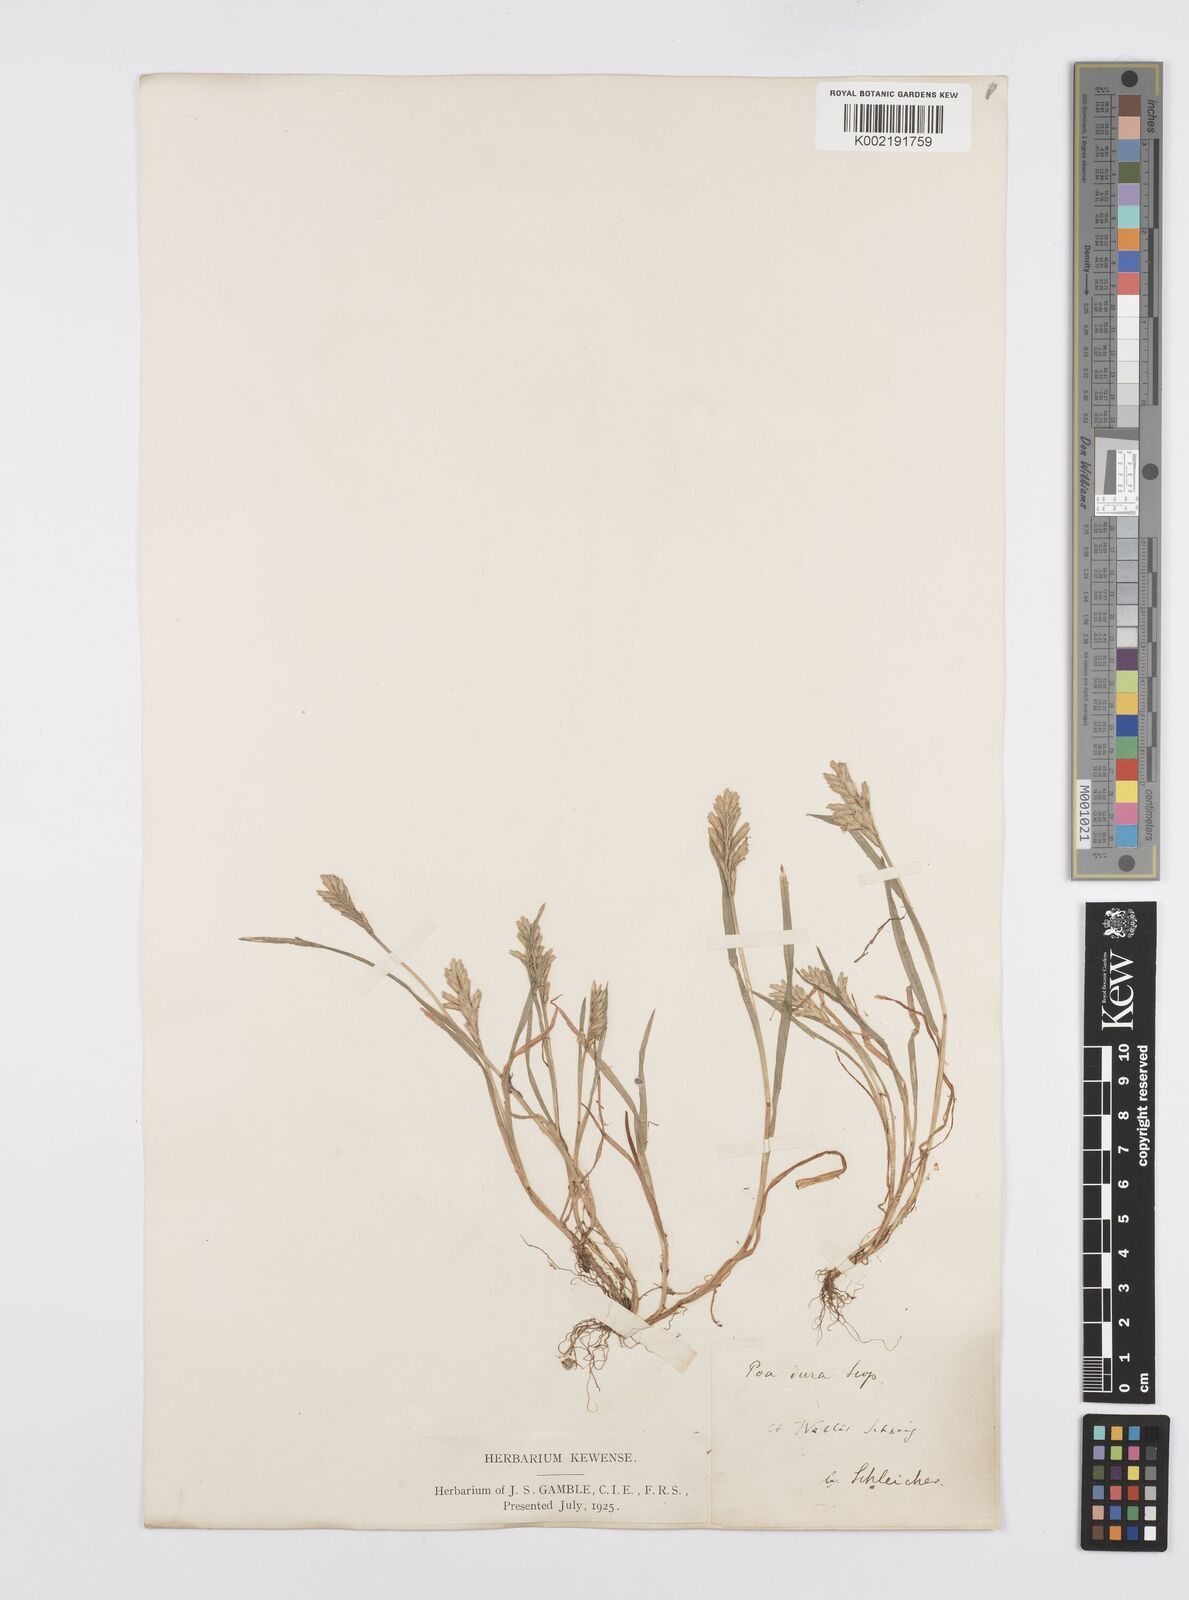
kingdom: Plantae
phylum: Tracheophyta
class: Liliopsida
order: Poales
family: Poaceae
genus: Sclerochloa
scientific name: Sclerochloa dura
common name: Common hardgrass
